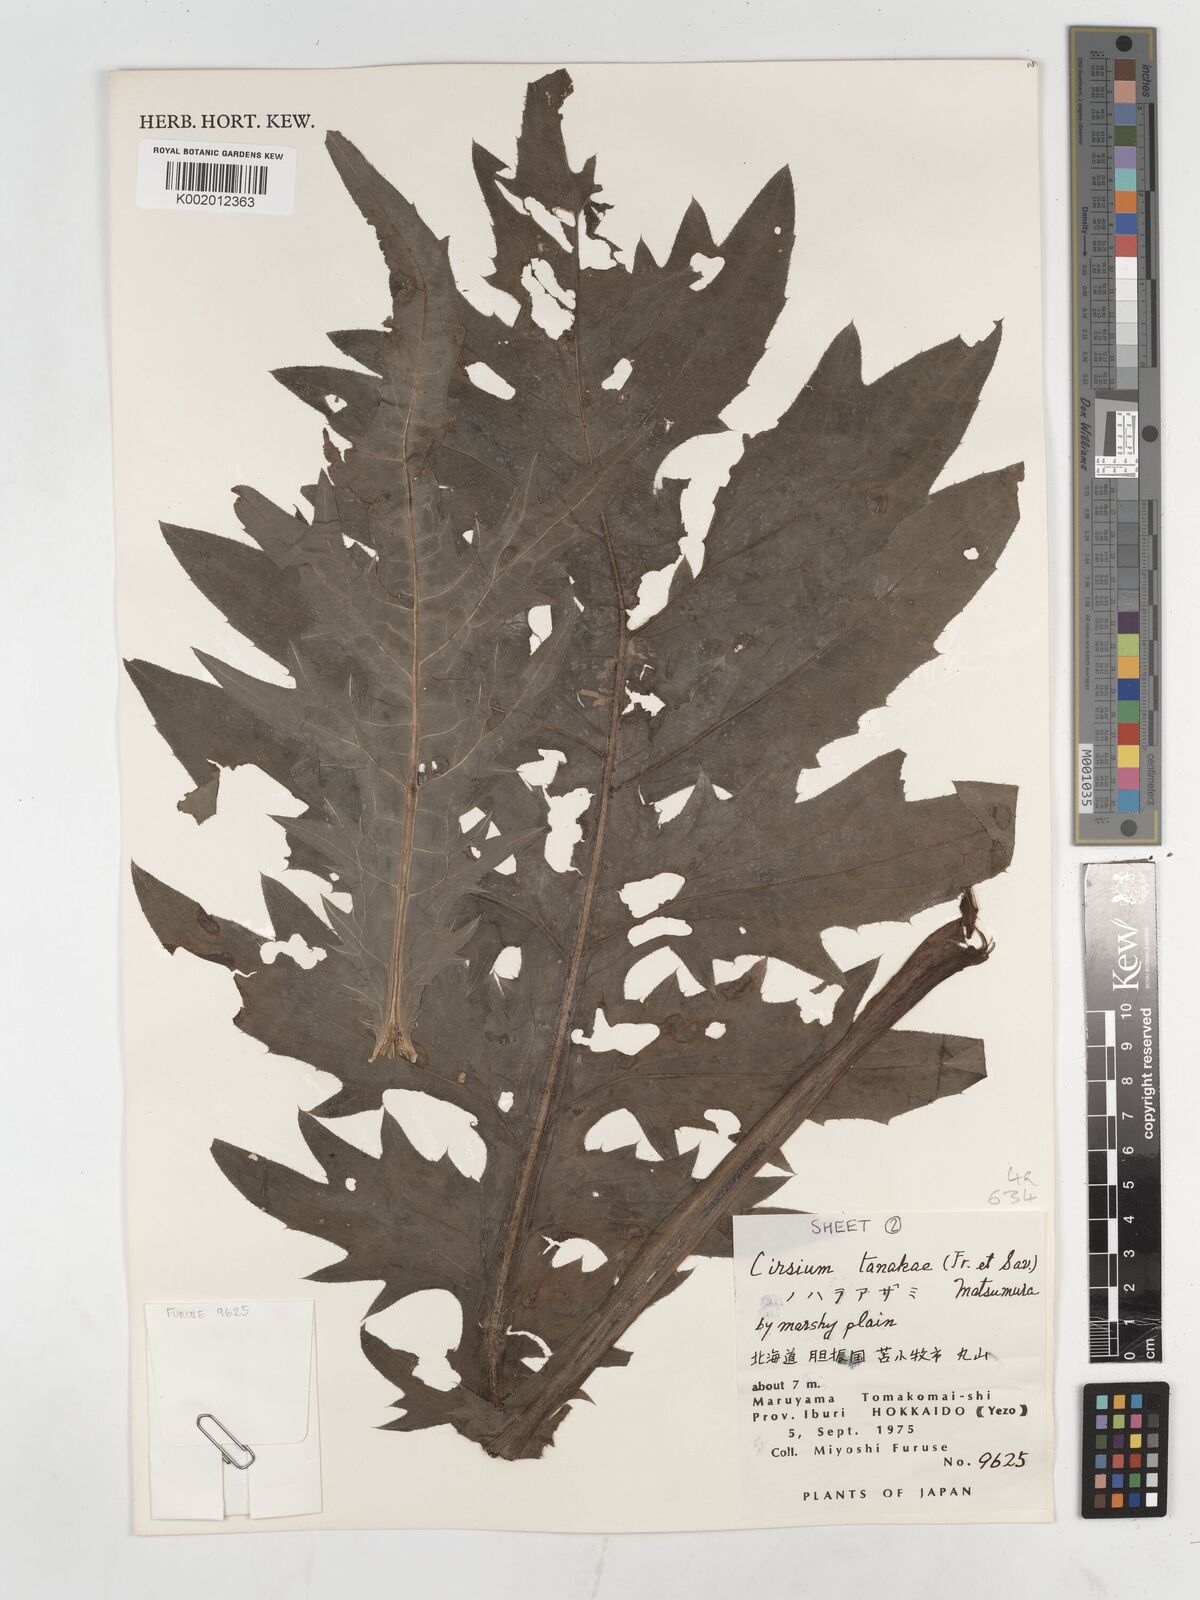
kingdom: Plantae
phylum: Tracheophyta
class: Magnoliopsida
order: Asterales
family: Asteraceae
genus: Cirsium
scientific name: Cirsium nipponicum
